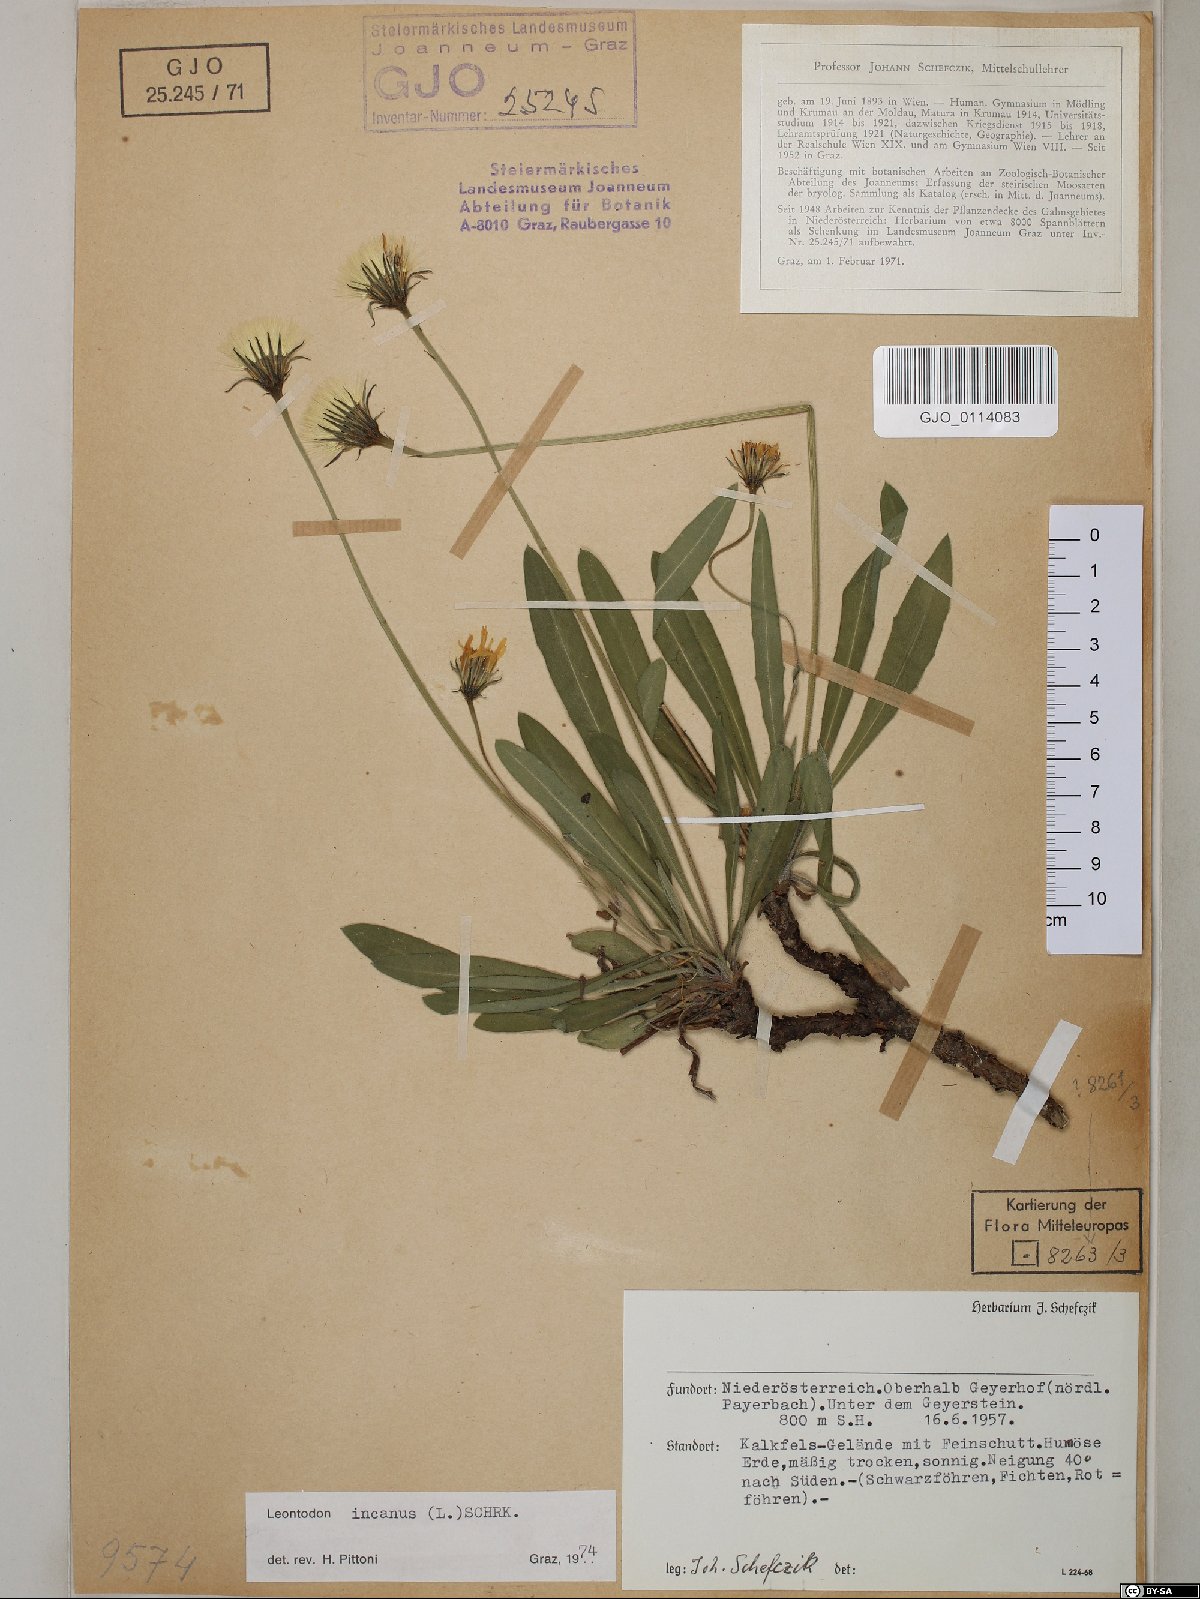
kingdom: Plantae
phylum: Tracheophyta
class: Magnoliopsida
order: Asterales
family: Asteraceae
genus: Leontodon
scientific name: Leontodon incanus
